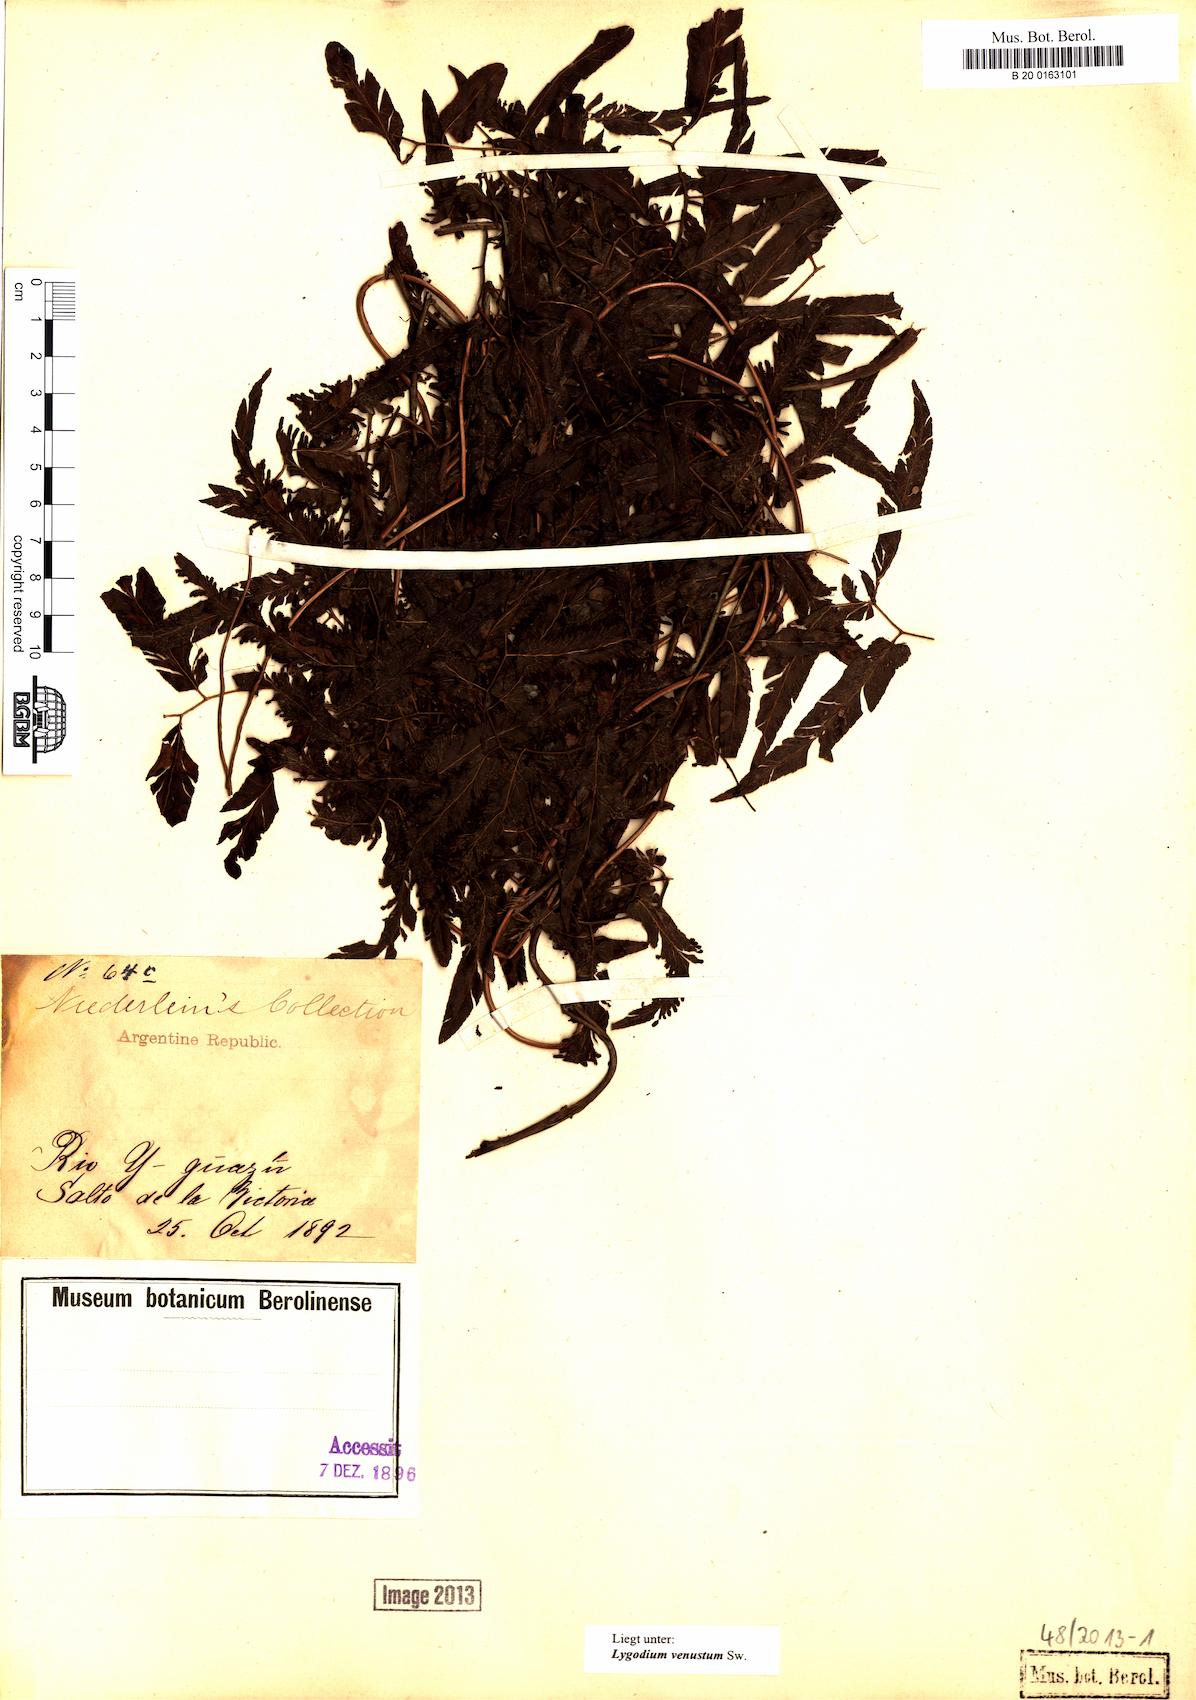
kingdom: Plantae
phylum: Tracheophyta
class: Polypodiopsida
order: Schizaeales
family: Lygodiaceae
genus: Lygodium
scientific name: Lygodium venustum
